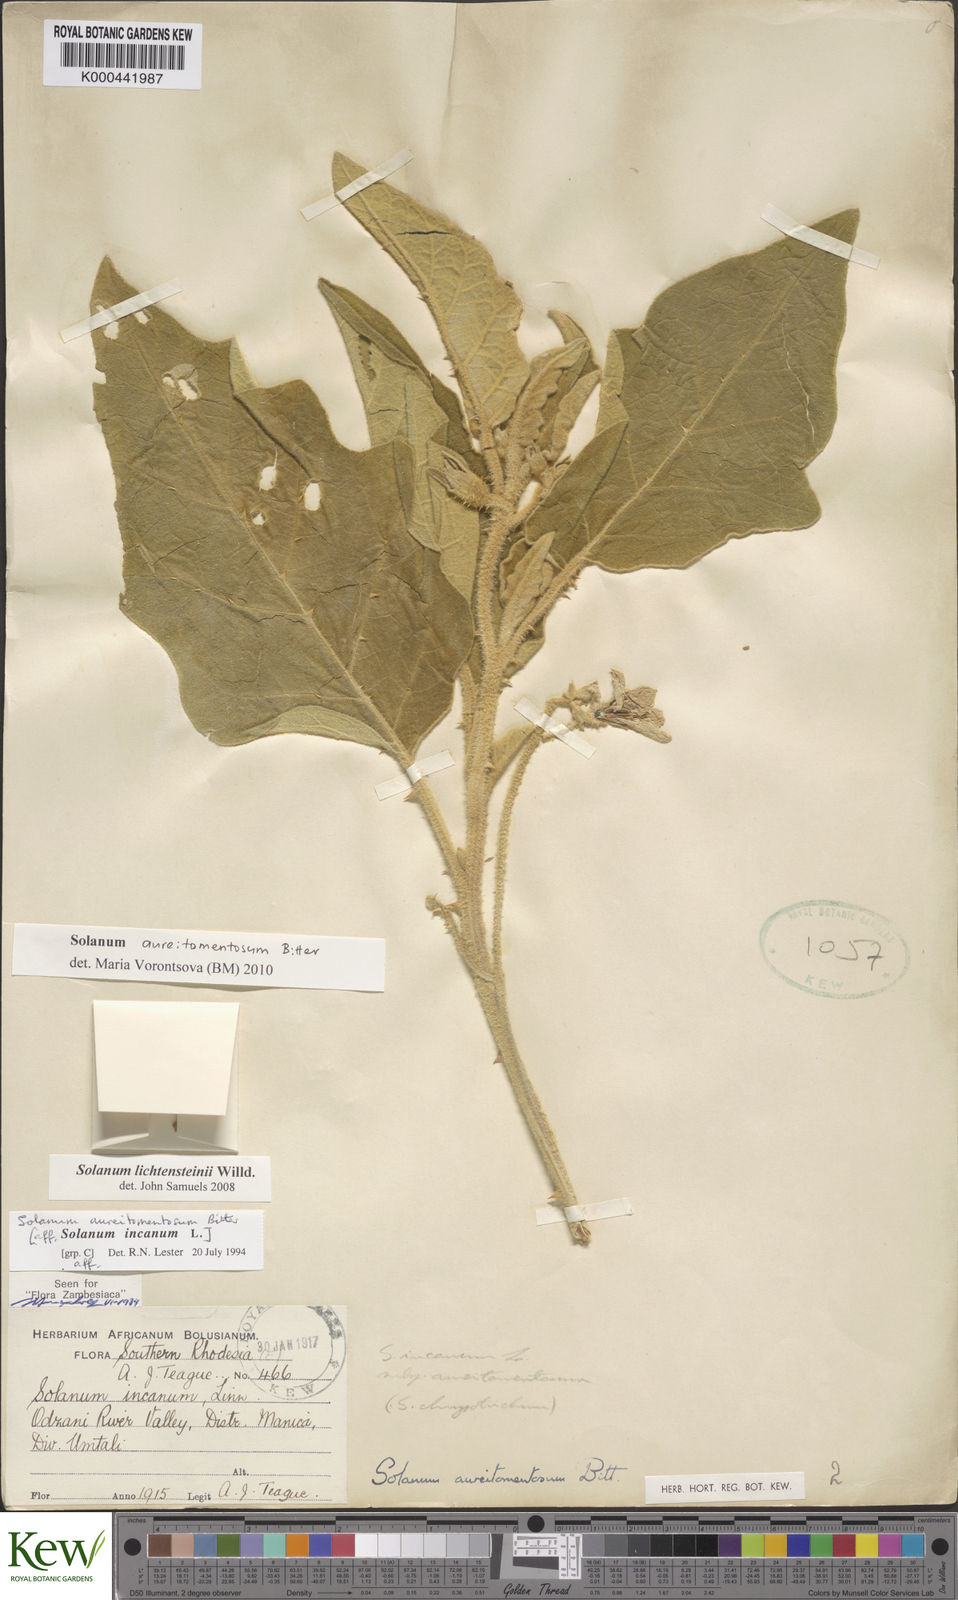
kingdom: Plantae
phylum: Tracheophyta
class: Magnoliopsida
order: Solanales
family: Solanaceae
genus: Solanum
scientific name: Solanum aureitomentosum
